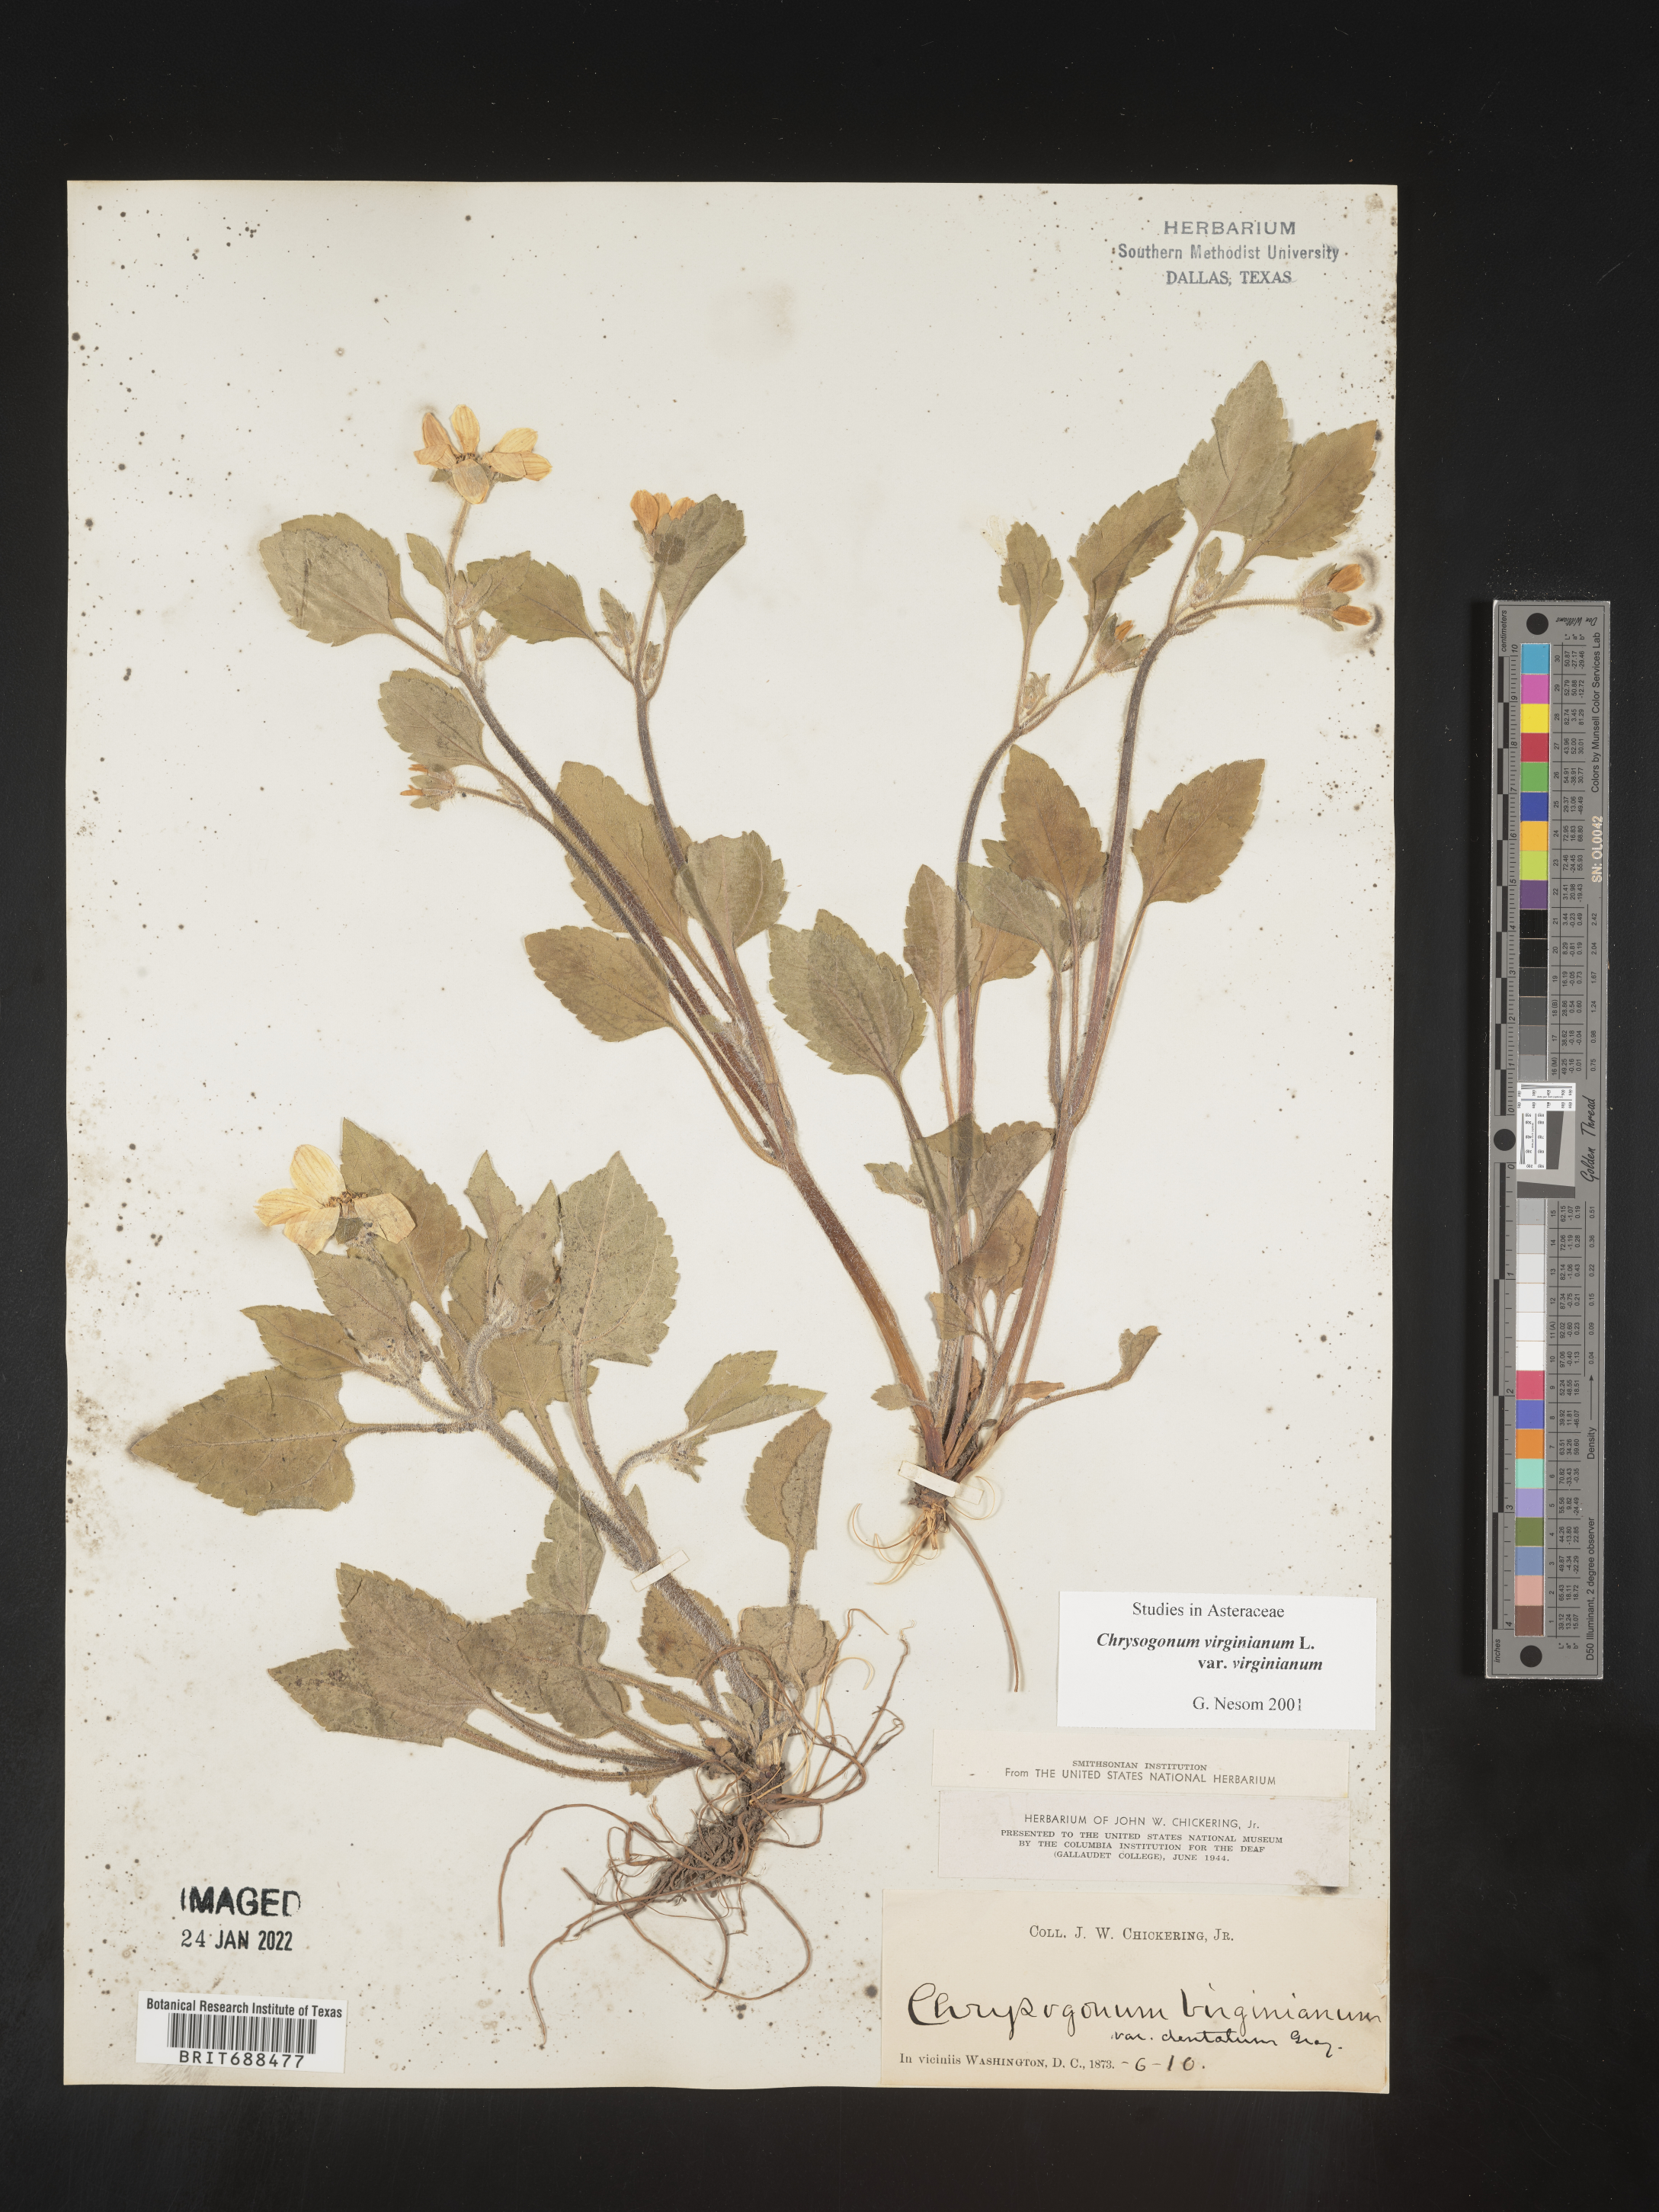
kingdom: Plantae
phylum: Tracheophyta
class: Magnoliopsida
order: Asterales
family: Asteraceae
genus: Chrysogonum
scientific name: Chrysogonum virginianum
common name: Golden-knee
